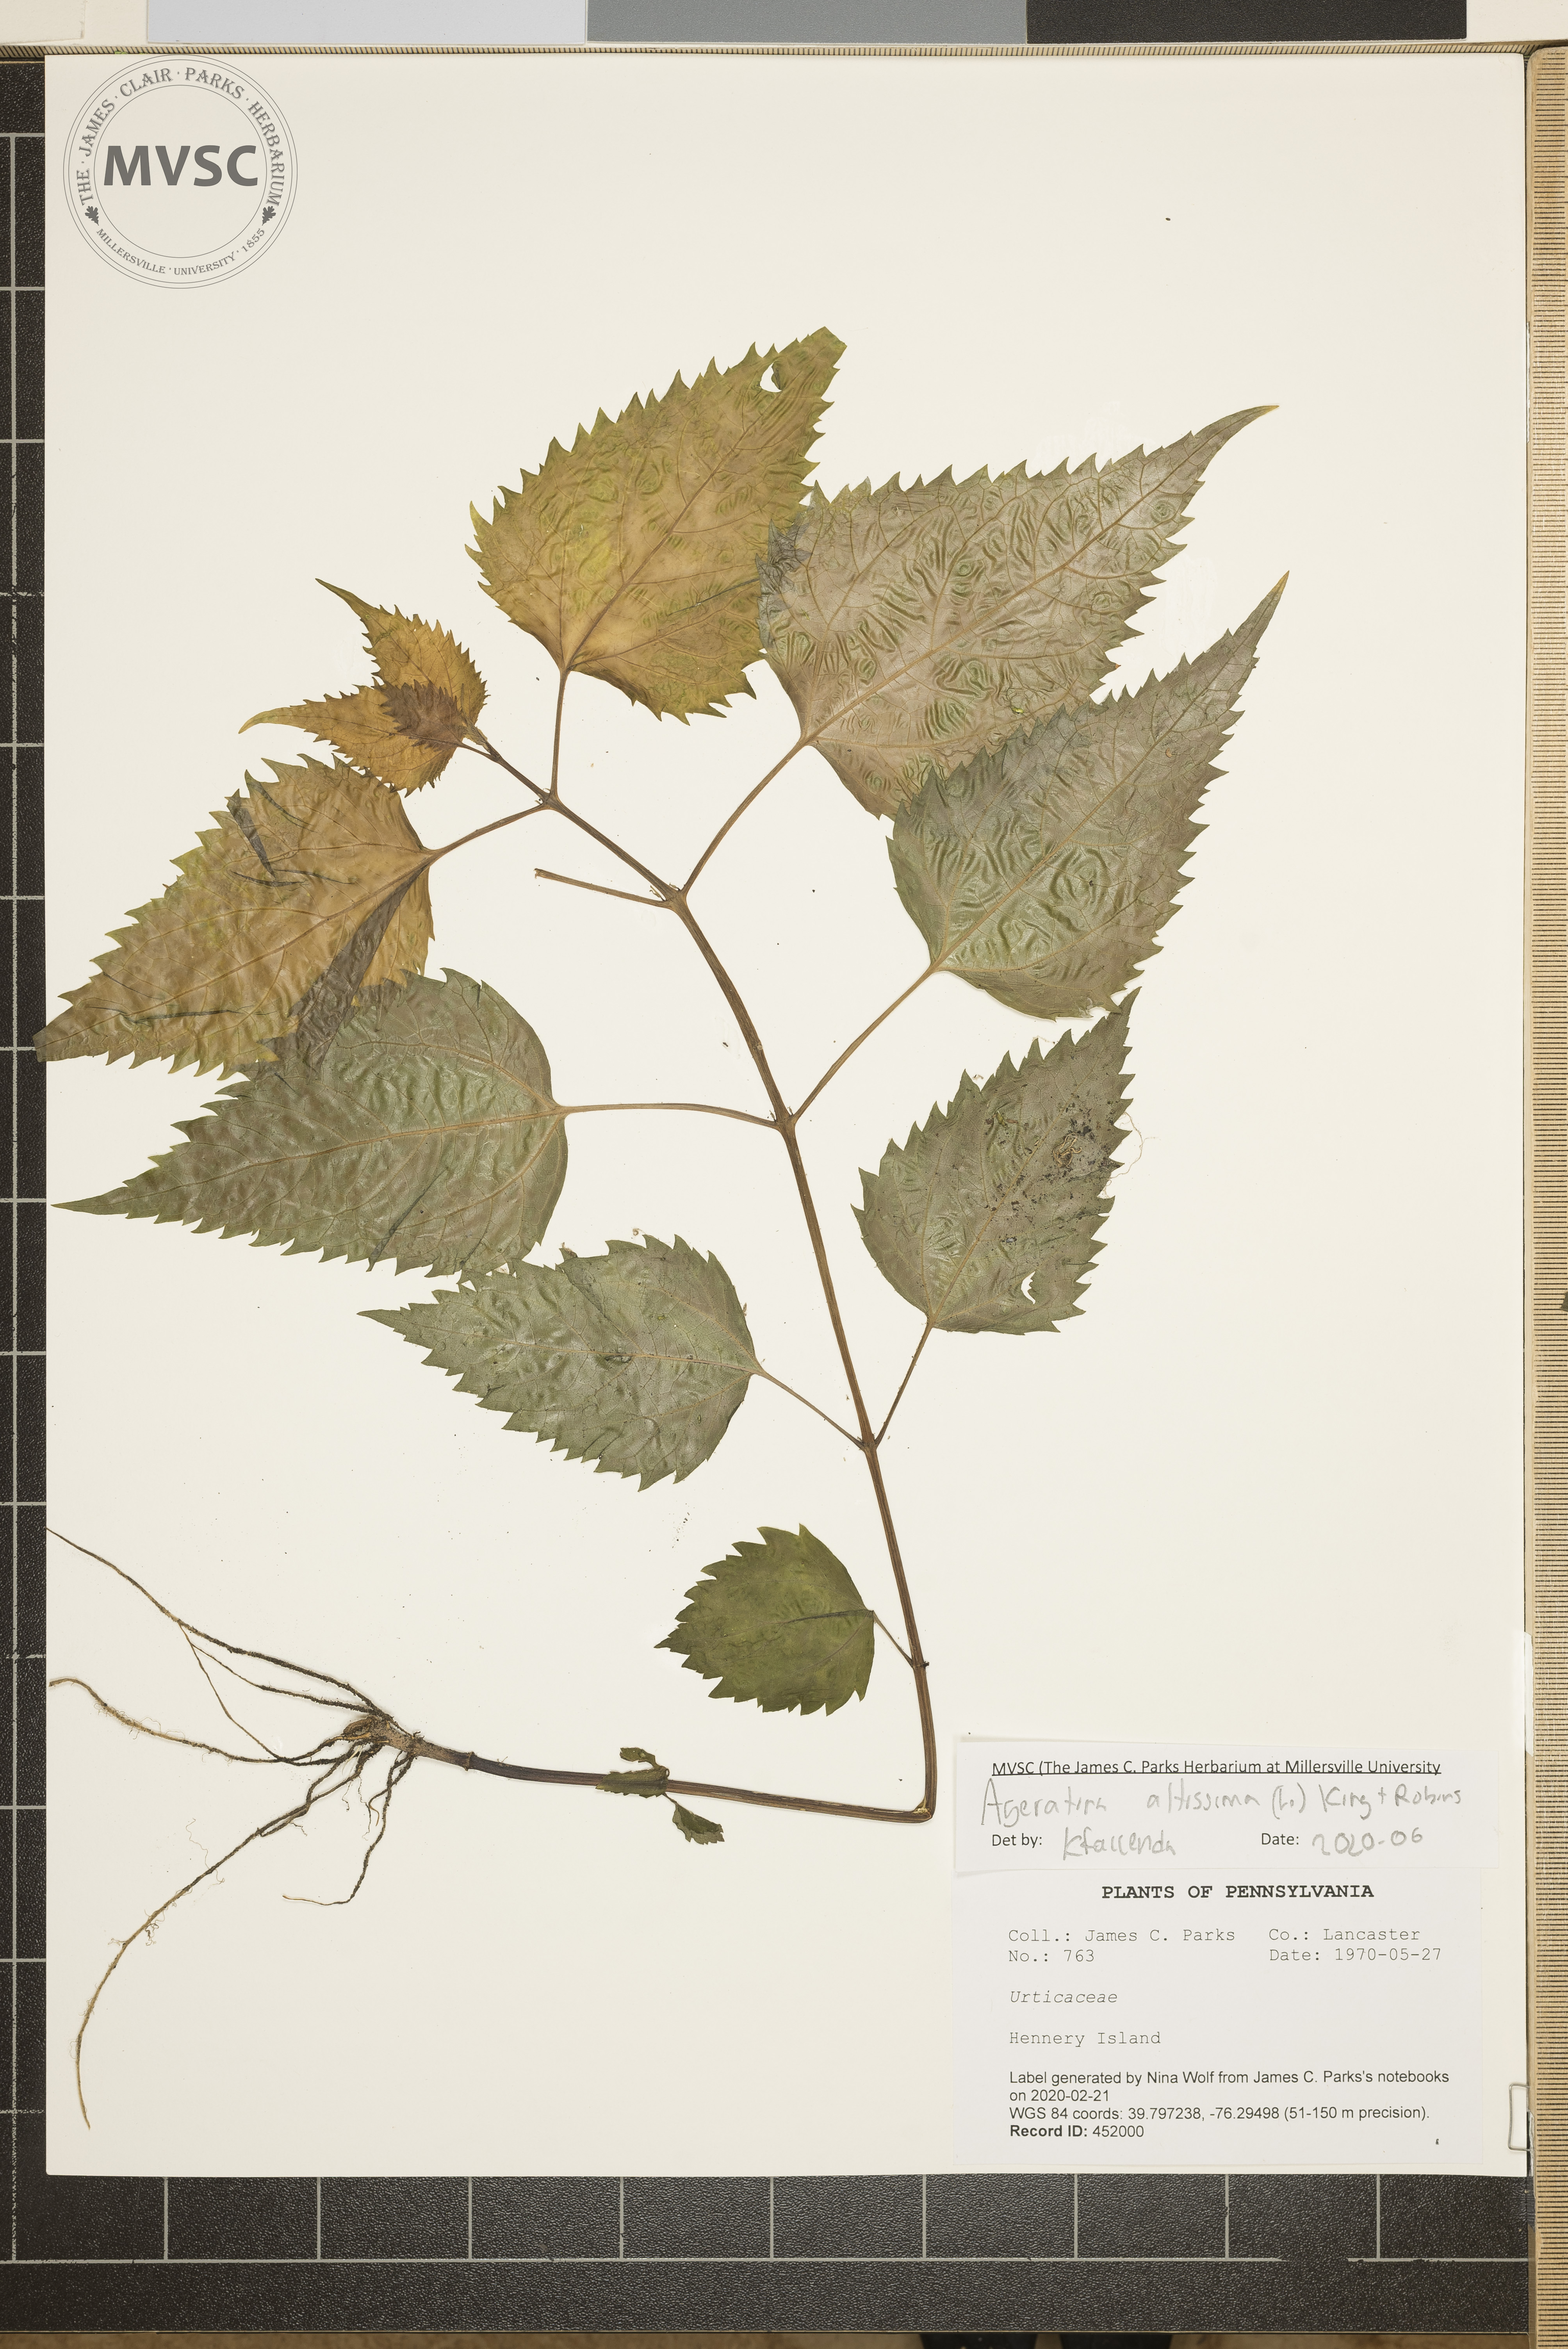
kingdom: Plantae
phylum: Tracheophyta
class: Magnoliopsida
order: Asterales
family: Asteraceae
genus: Ageratina
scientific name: Ageratina altissima
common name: White snakeroot
